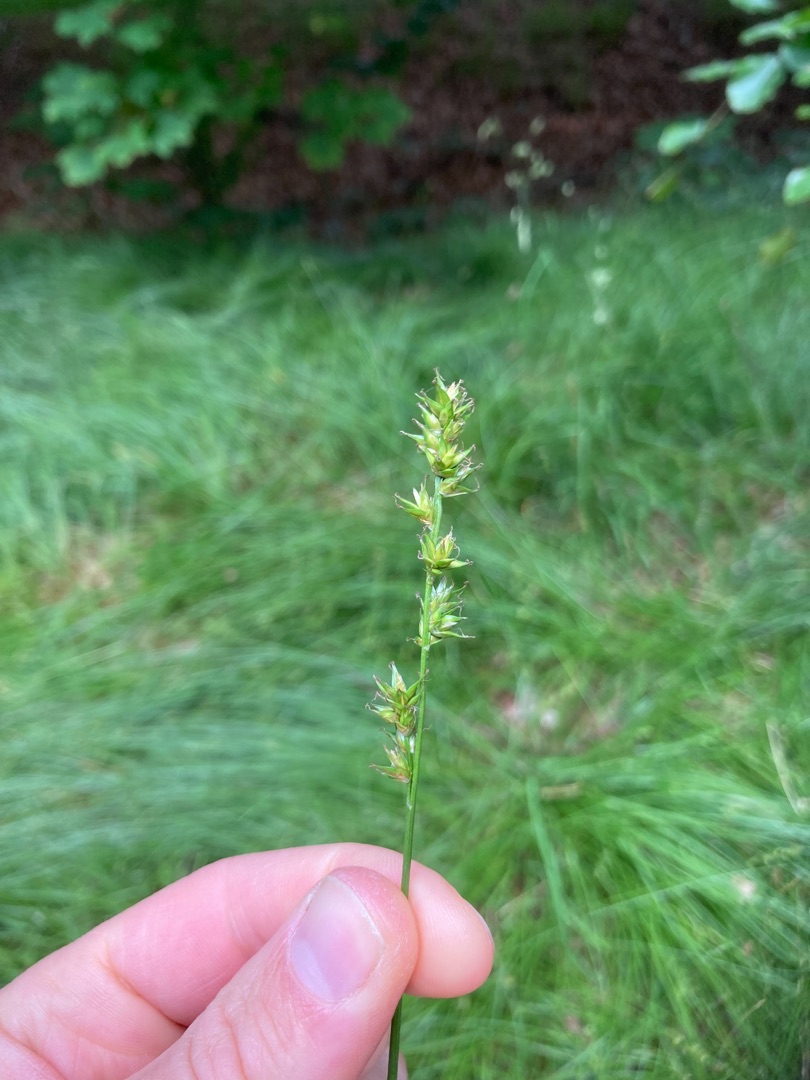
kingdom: Plantae
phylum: Tracheophyta
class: Liliopsida
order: Poales
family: Cyperaceae
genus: Carex
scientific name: Carex divulsa
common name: Mellembrudt star
